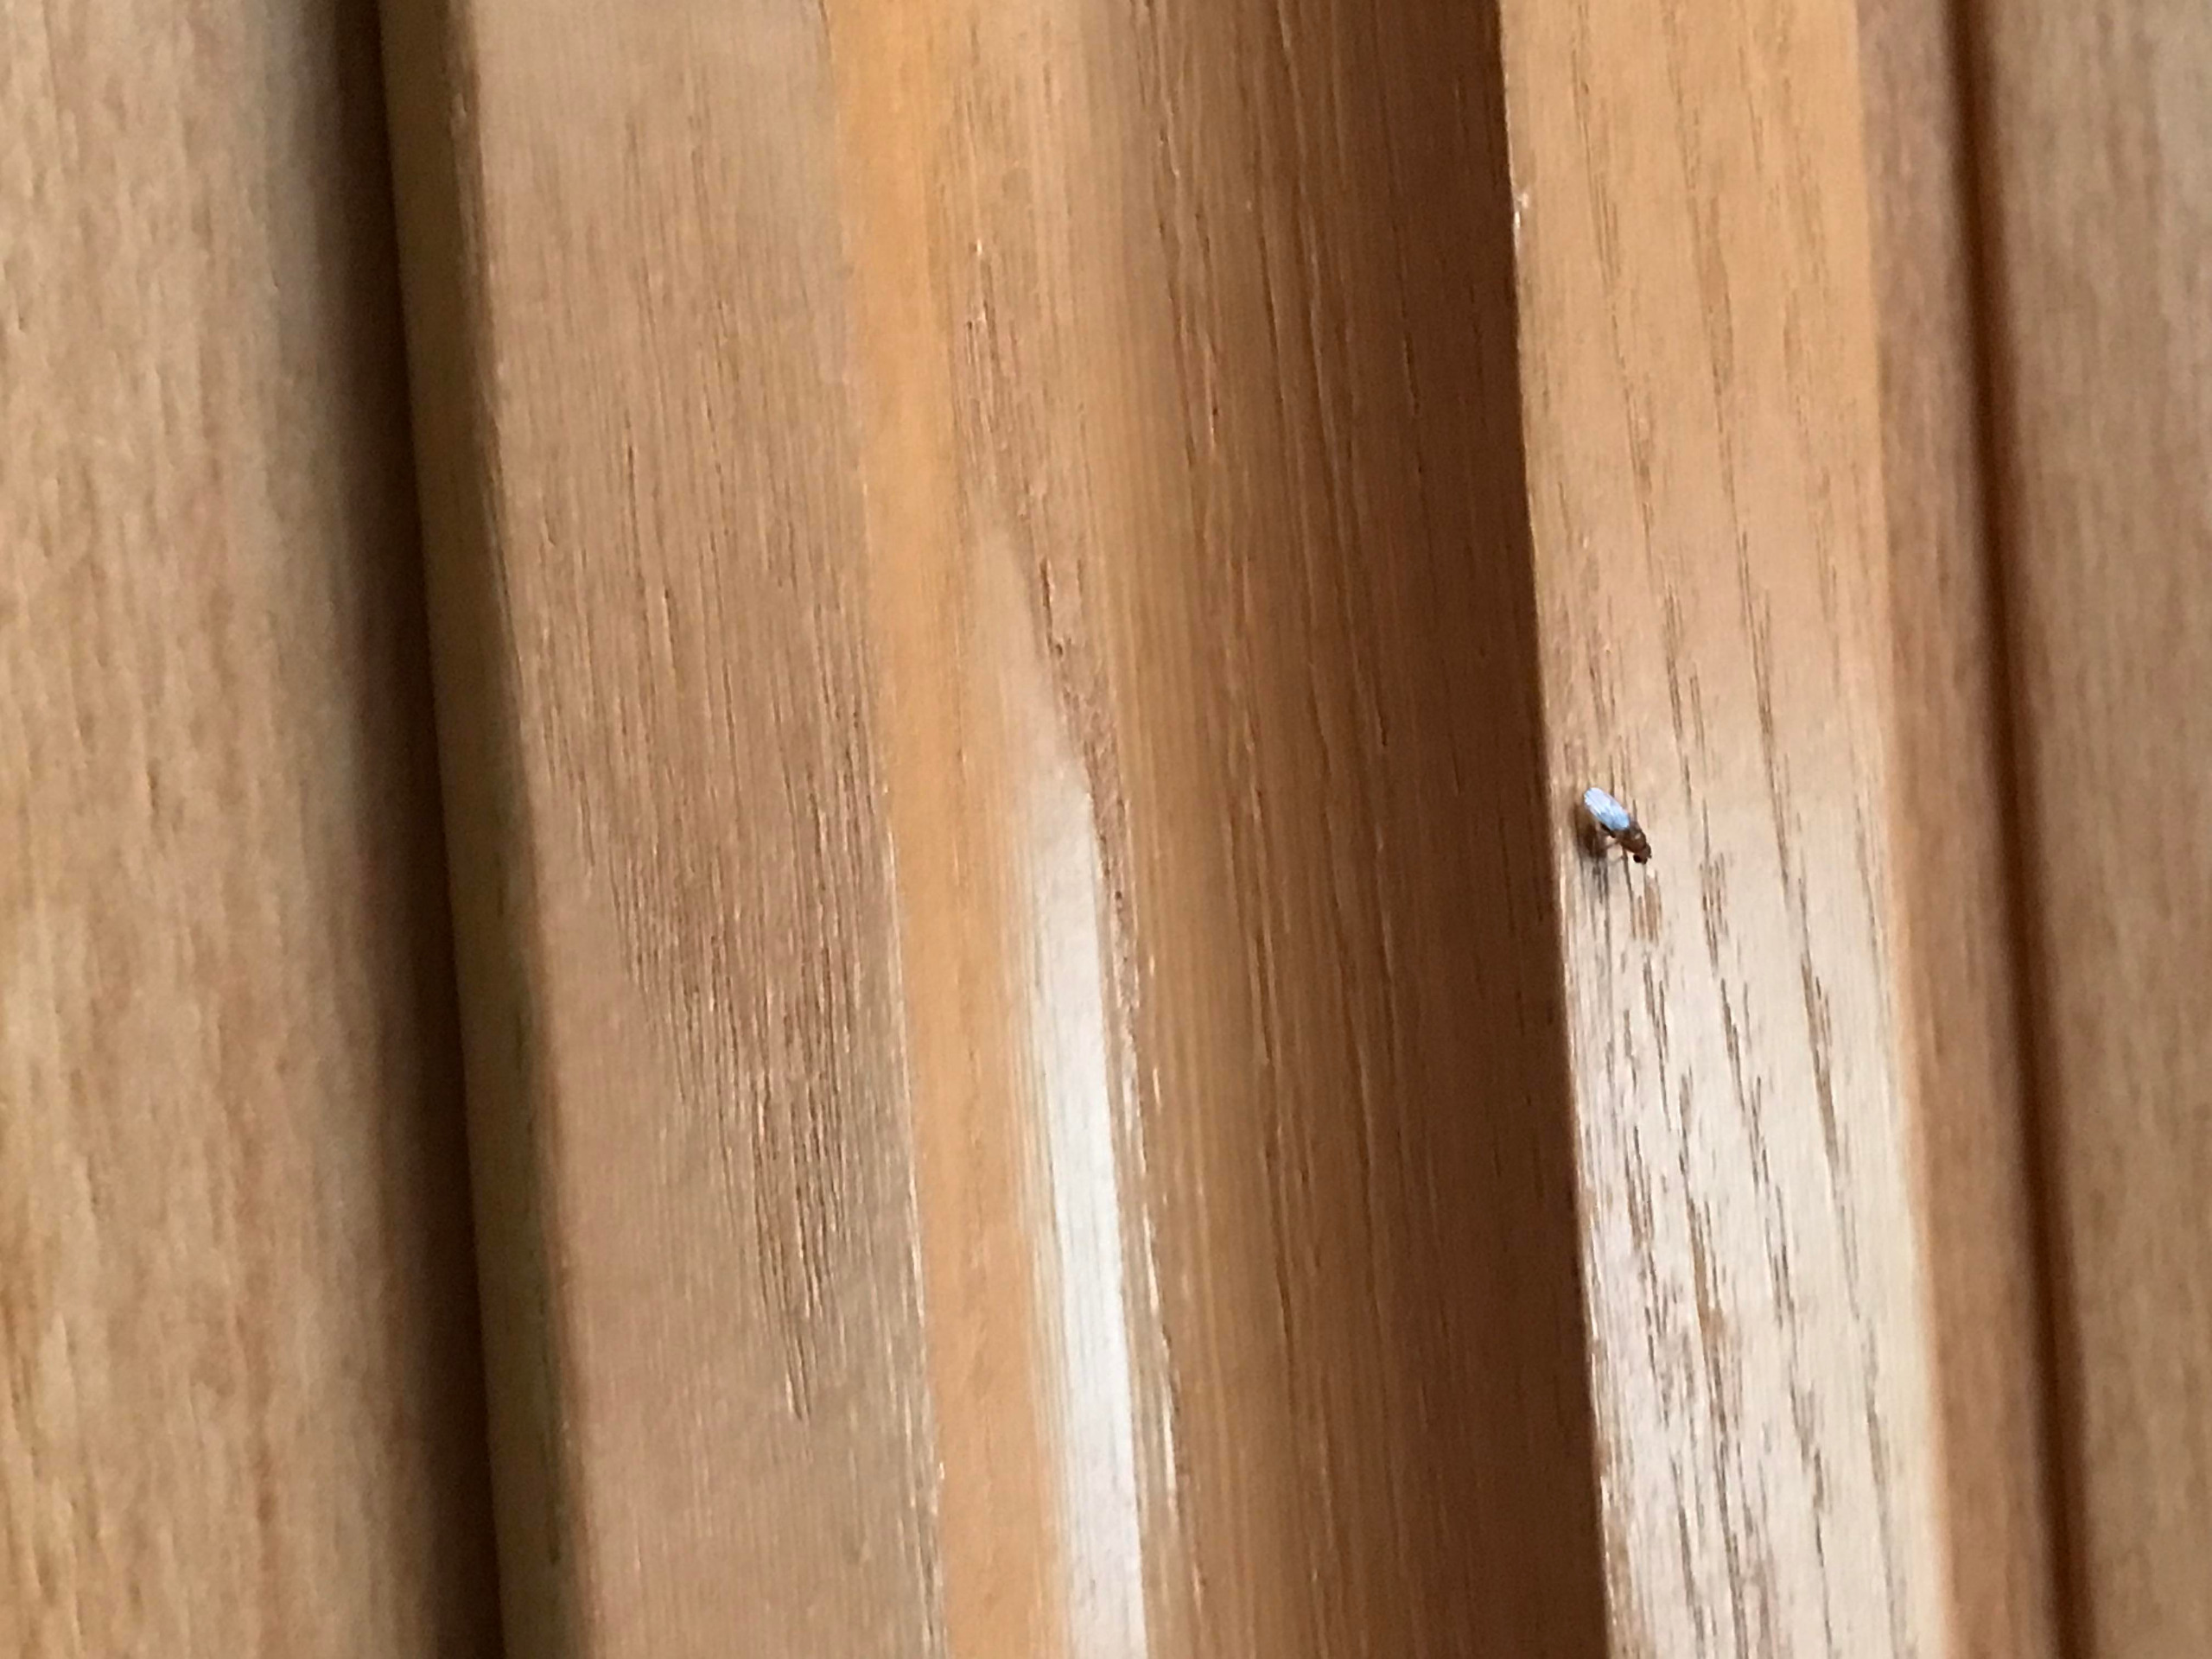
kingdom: Animalia
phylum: Arthropoda
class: Insecta
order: Diptera
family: Drosophilidae
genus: Drosophila
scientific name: Drosophila
